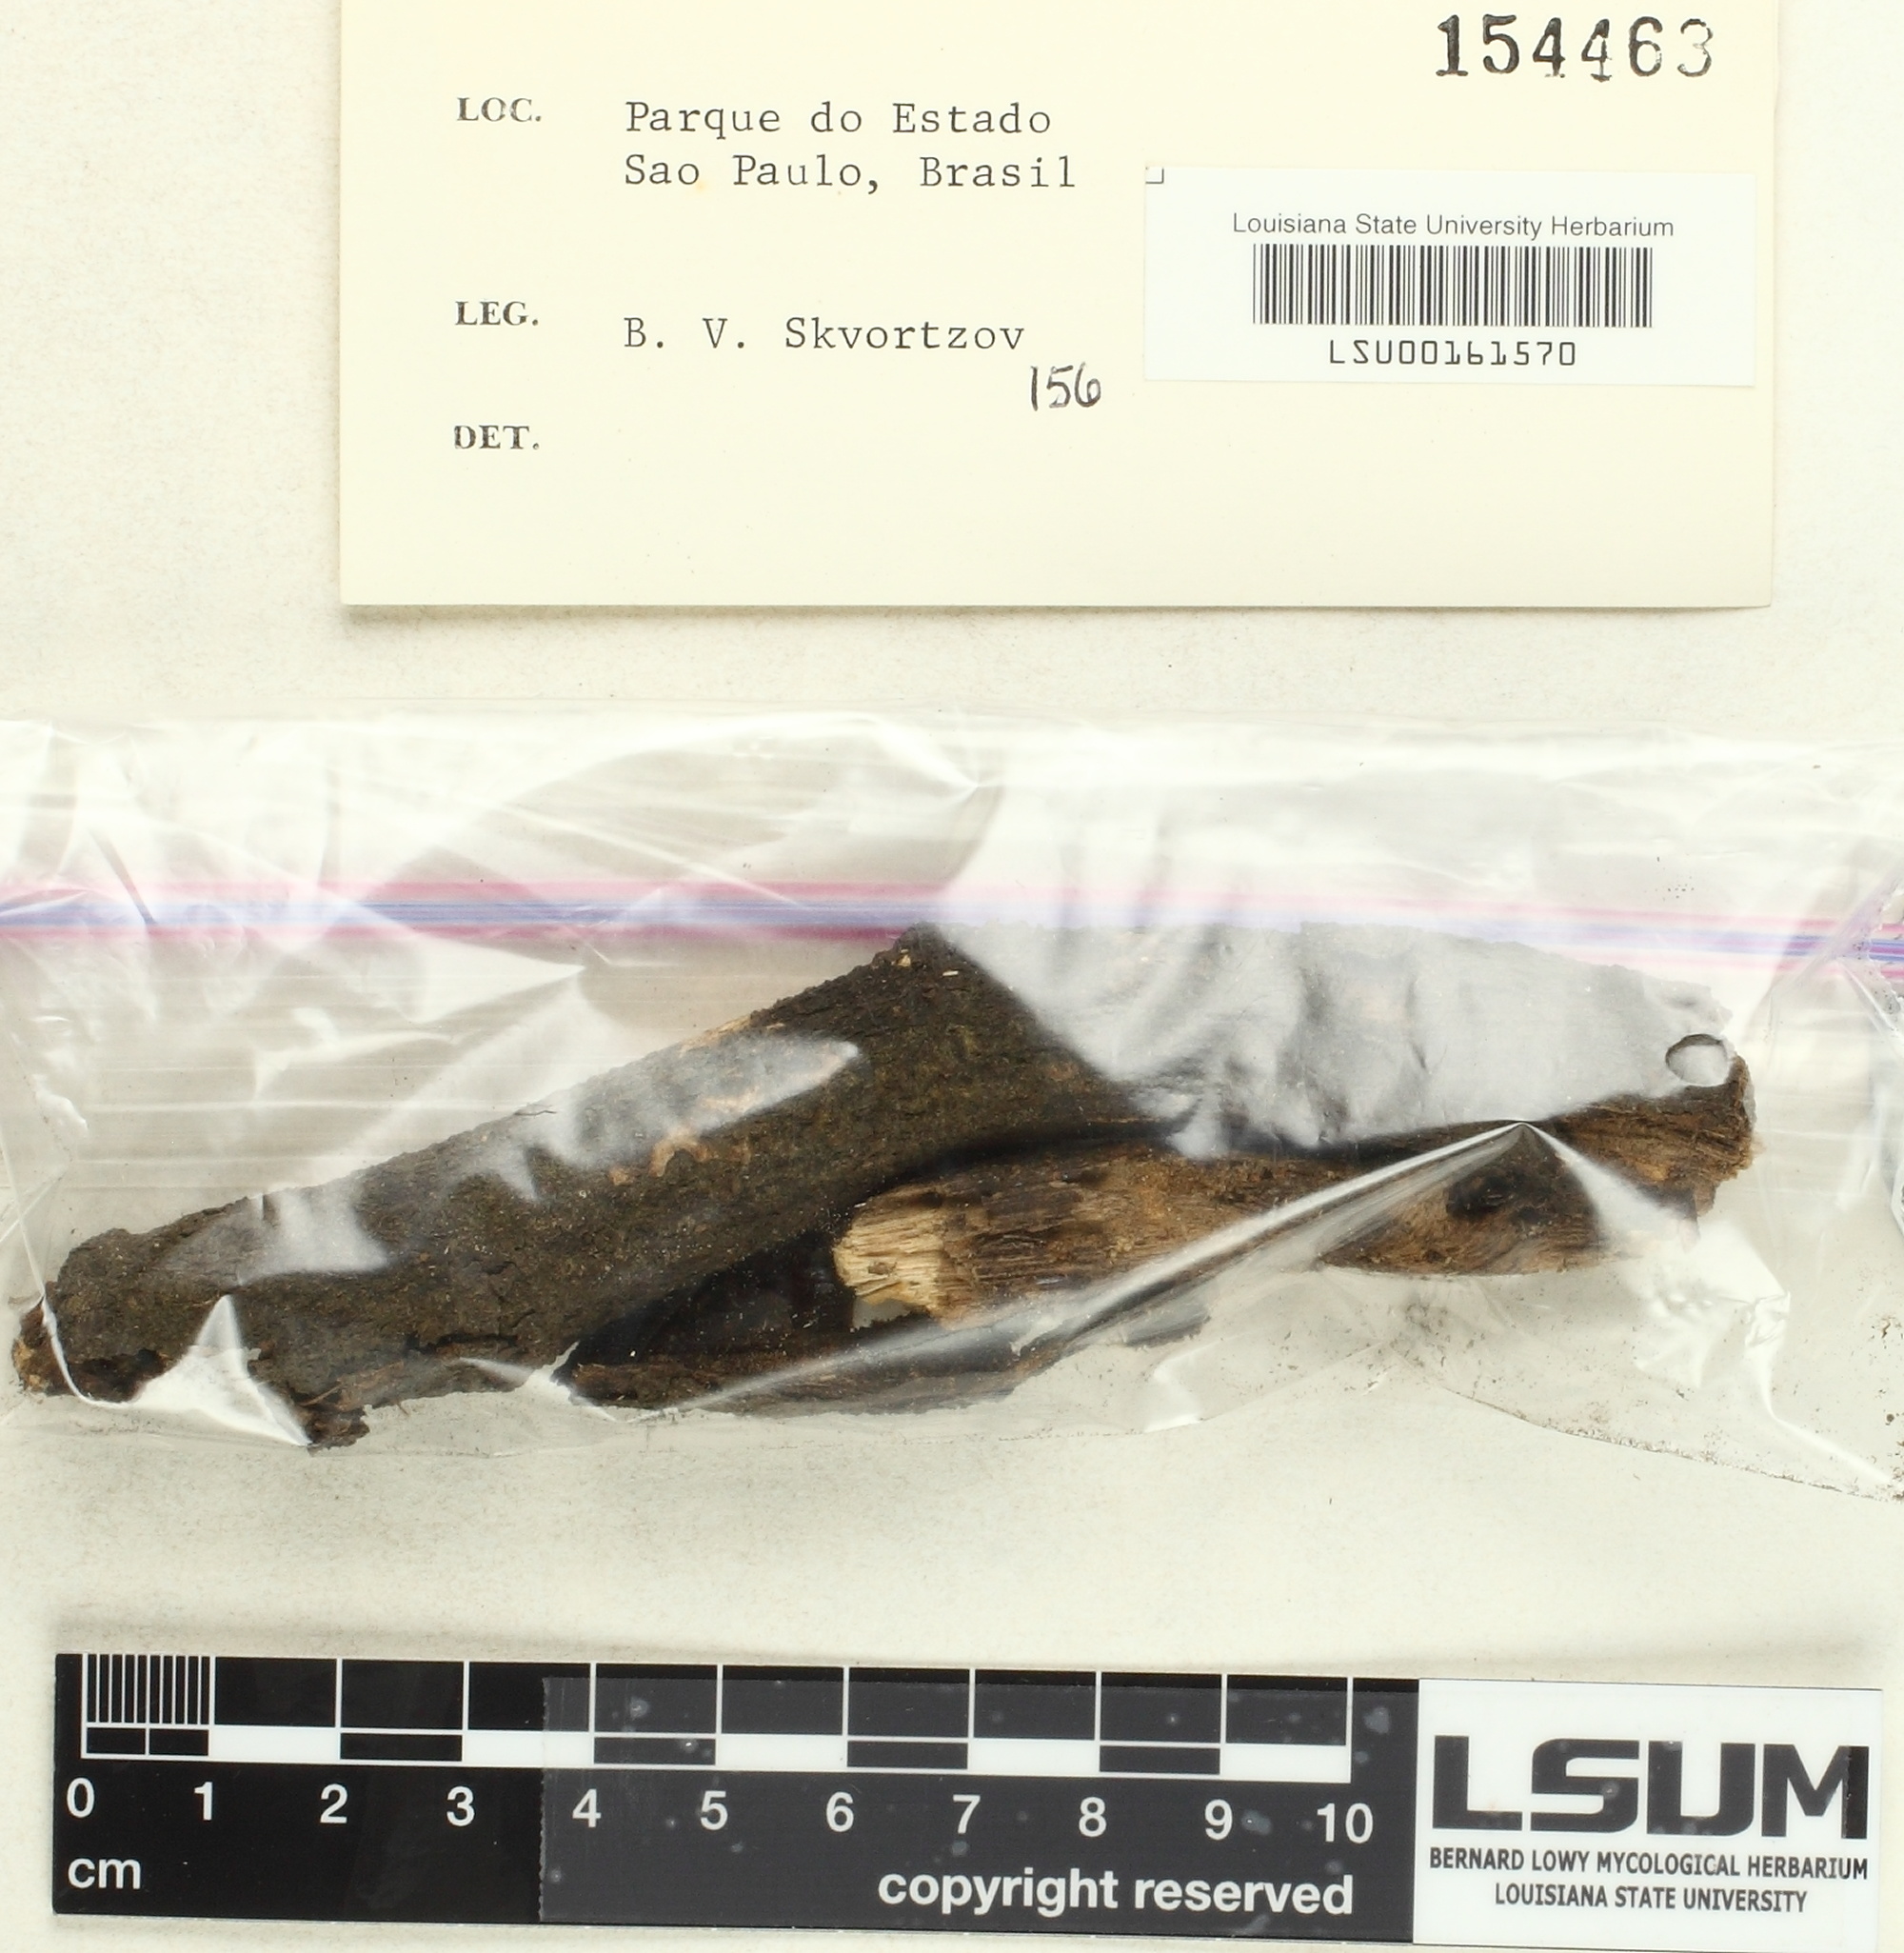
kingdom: Fungi
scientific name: Fungi
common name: Fungi
